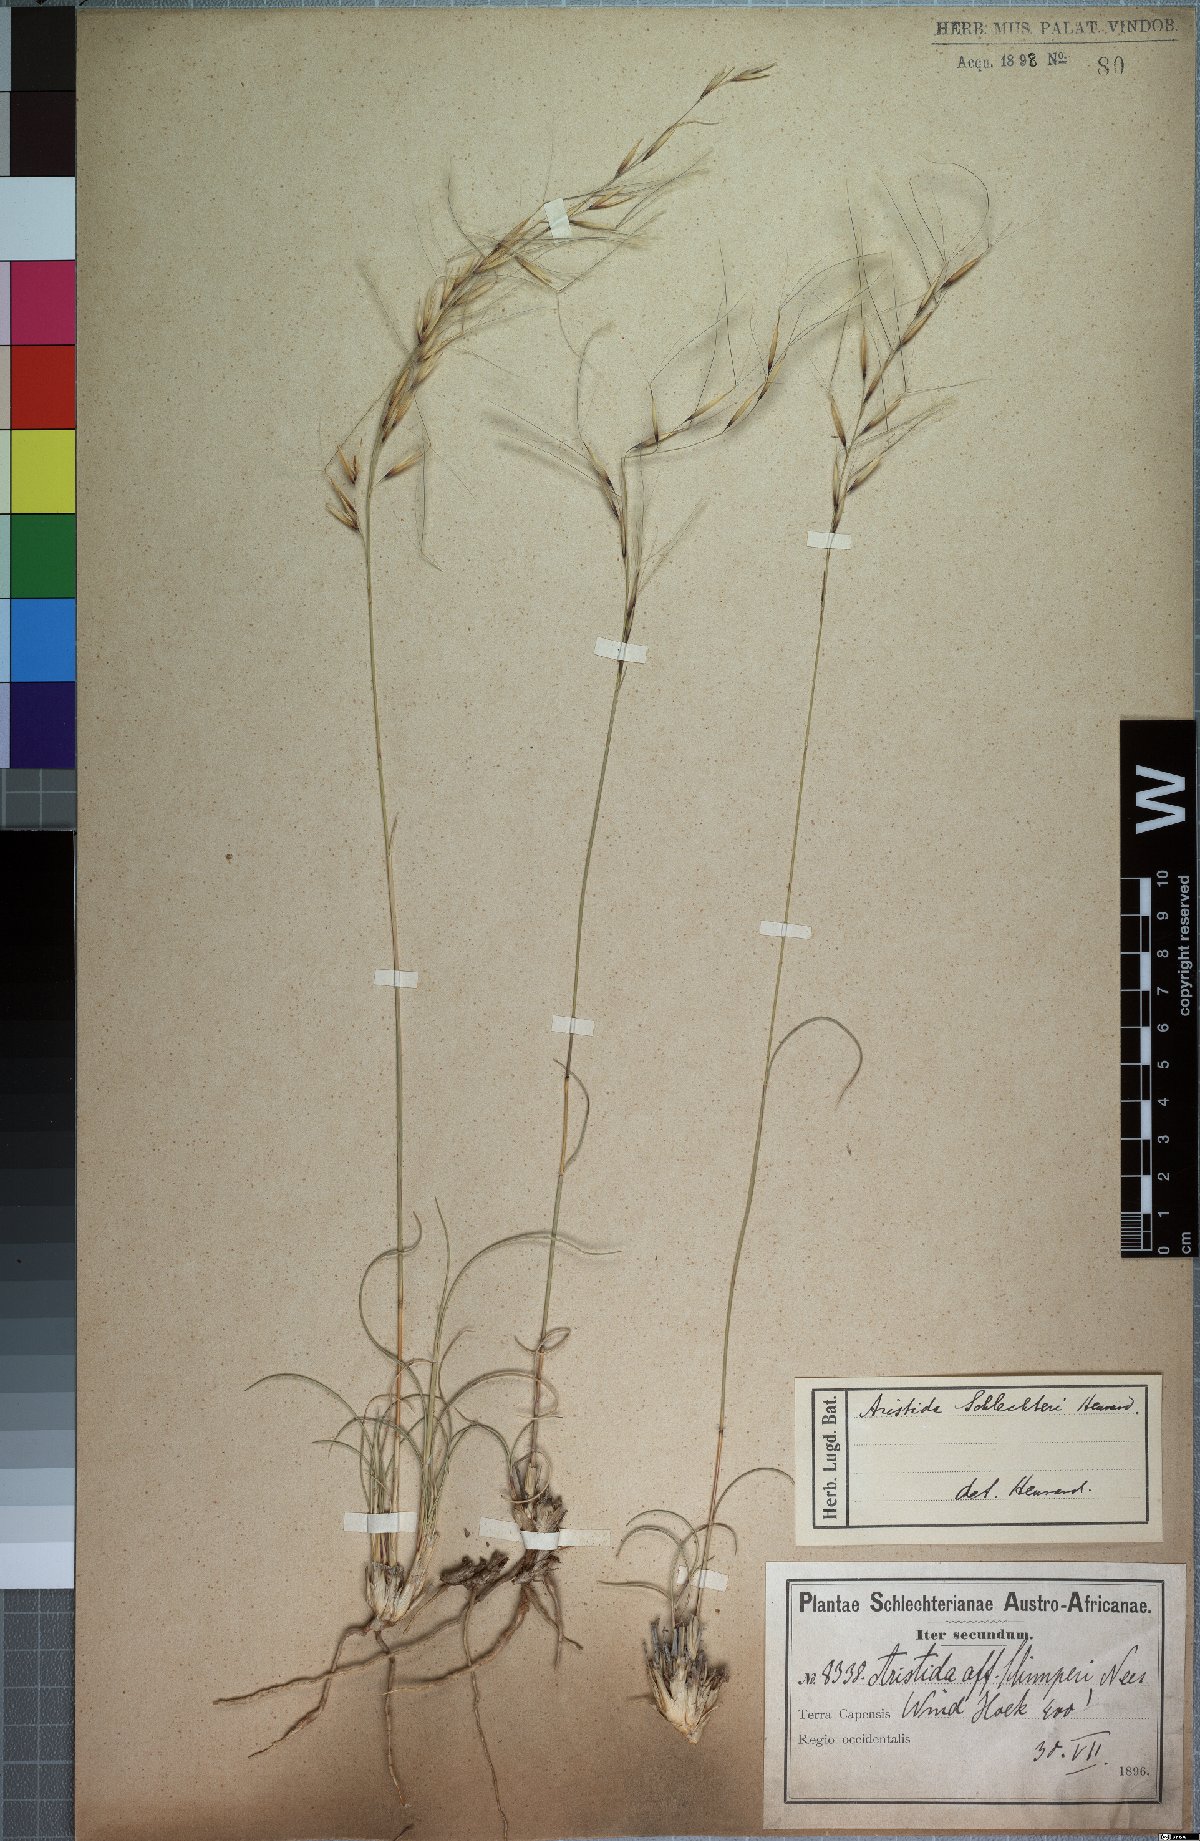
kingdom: Plantae
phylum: Tracheophyta
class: Liliopsida
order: Poales
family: Poaceae
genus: Stipagrostis
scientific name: Stipagrostis zeyheri
